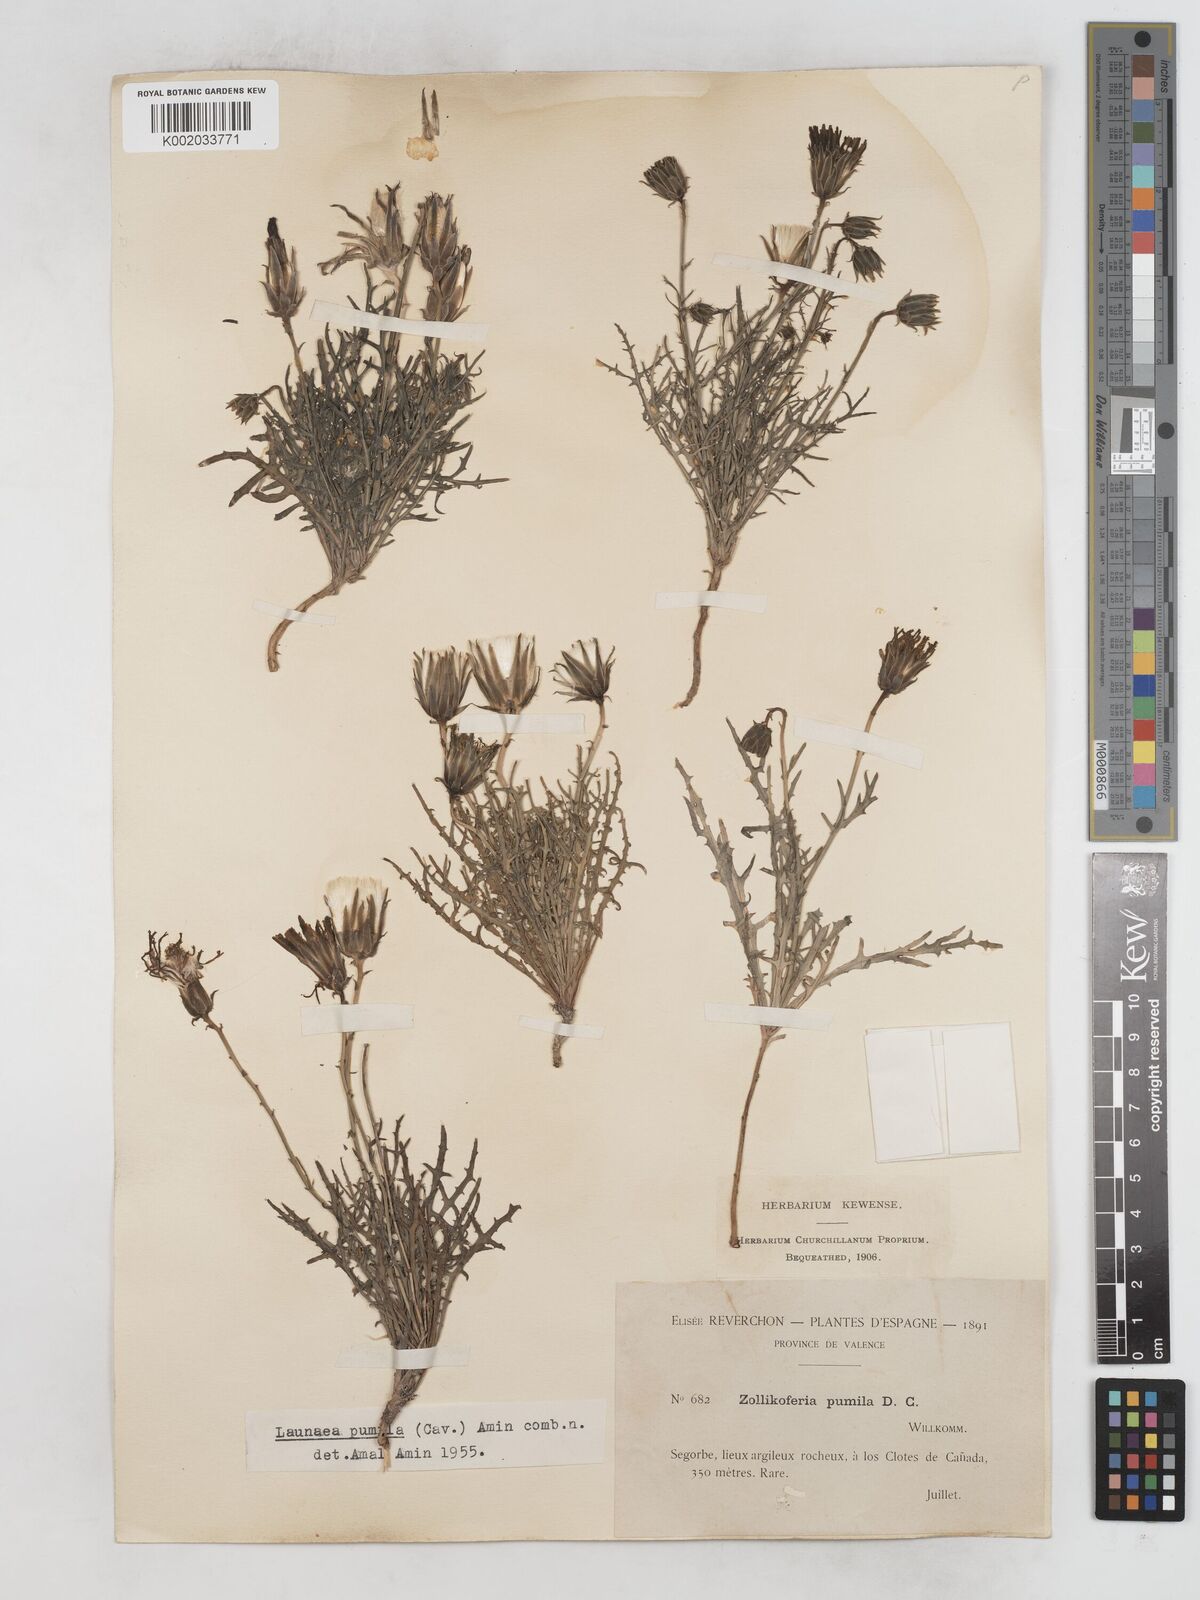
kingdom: Plantae
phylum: Tracheophyta
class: Magnoliopsida
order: Asterales
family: Asteraceae
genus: Launaea
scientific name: Launaea pumila
